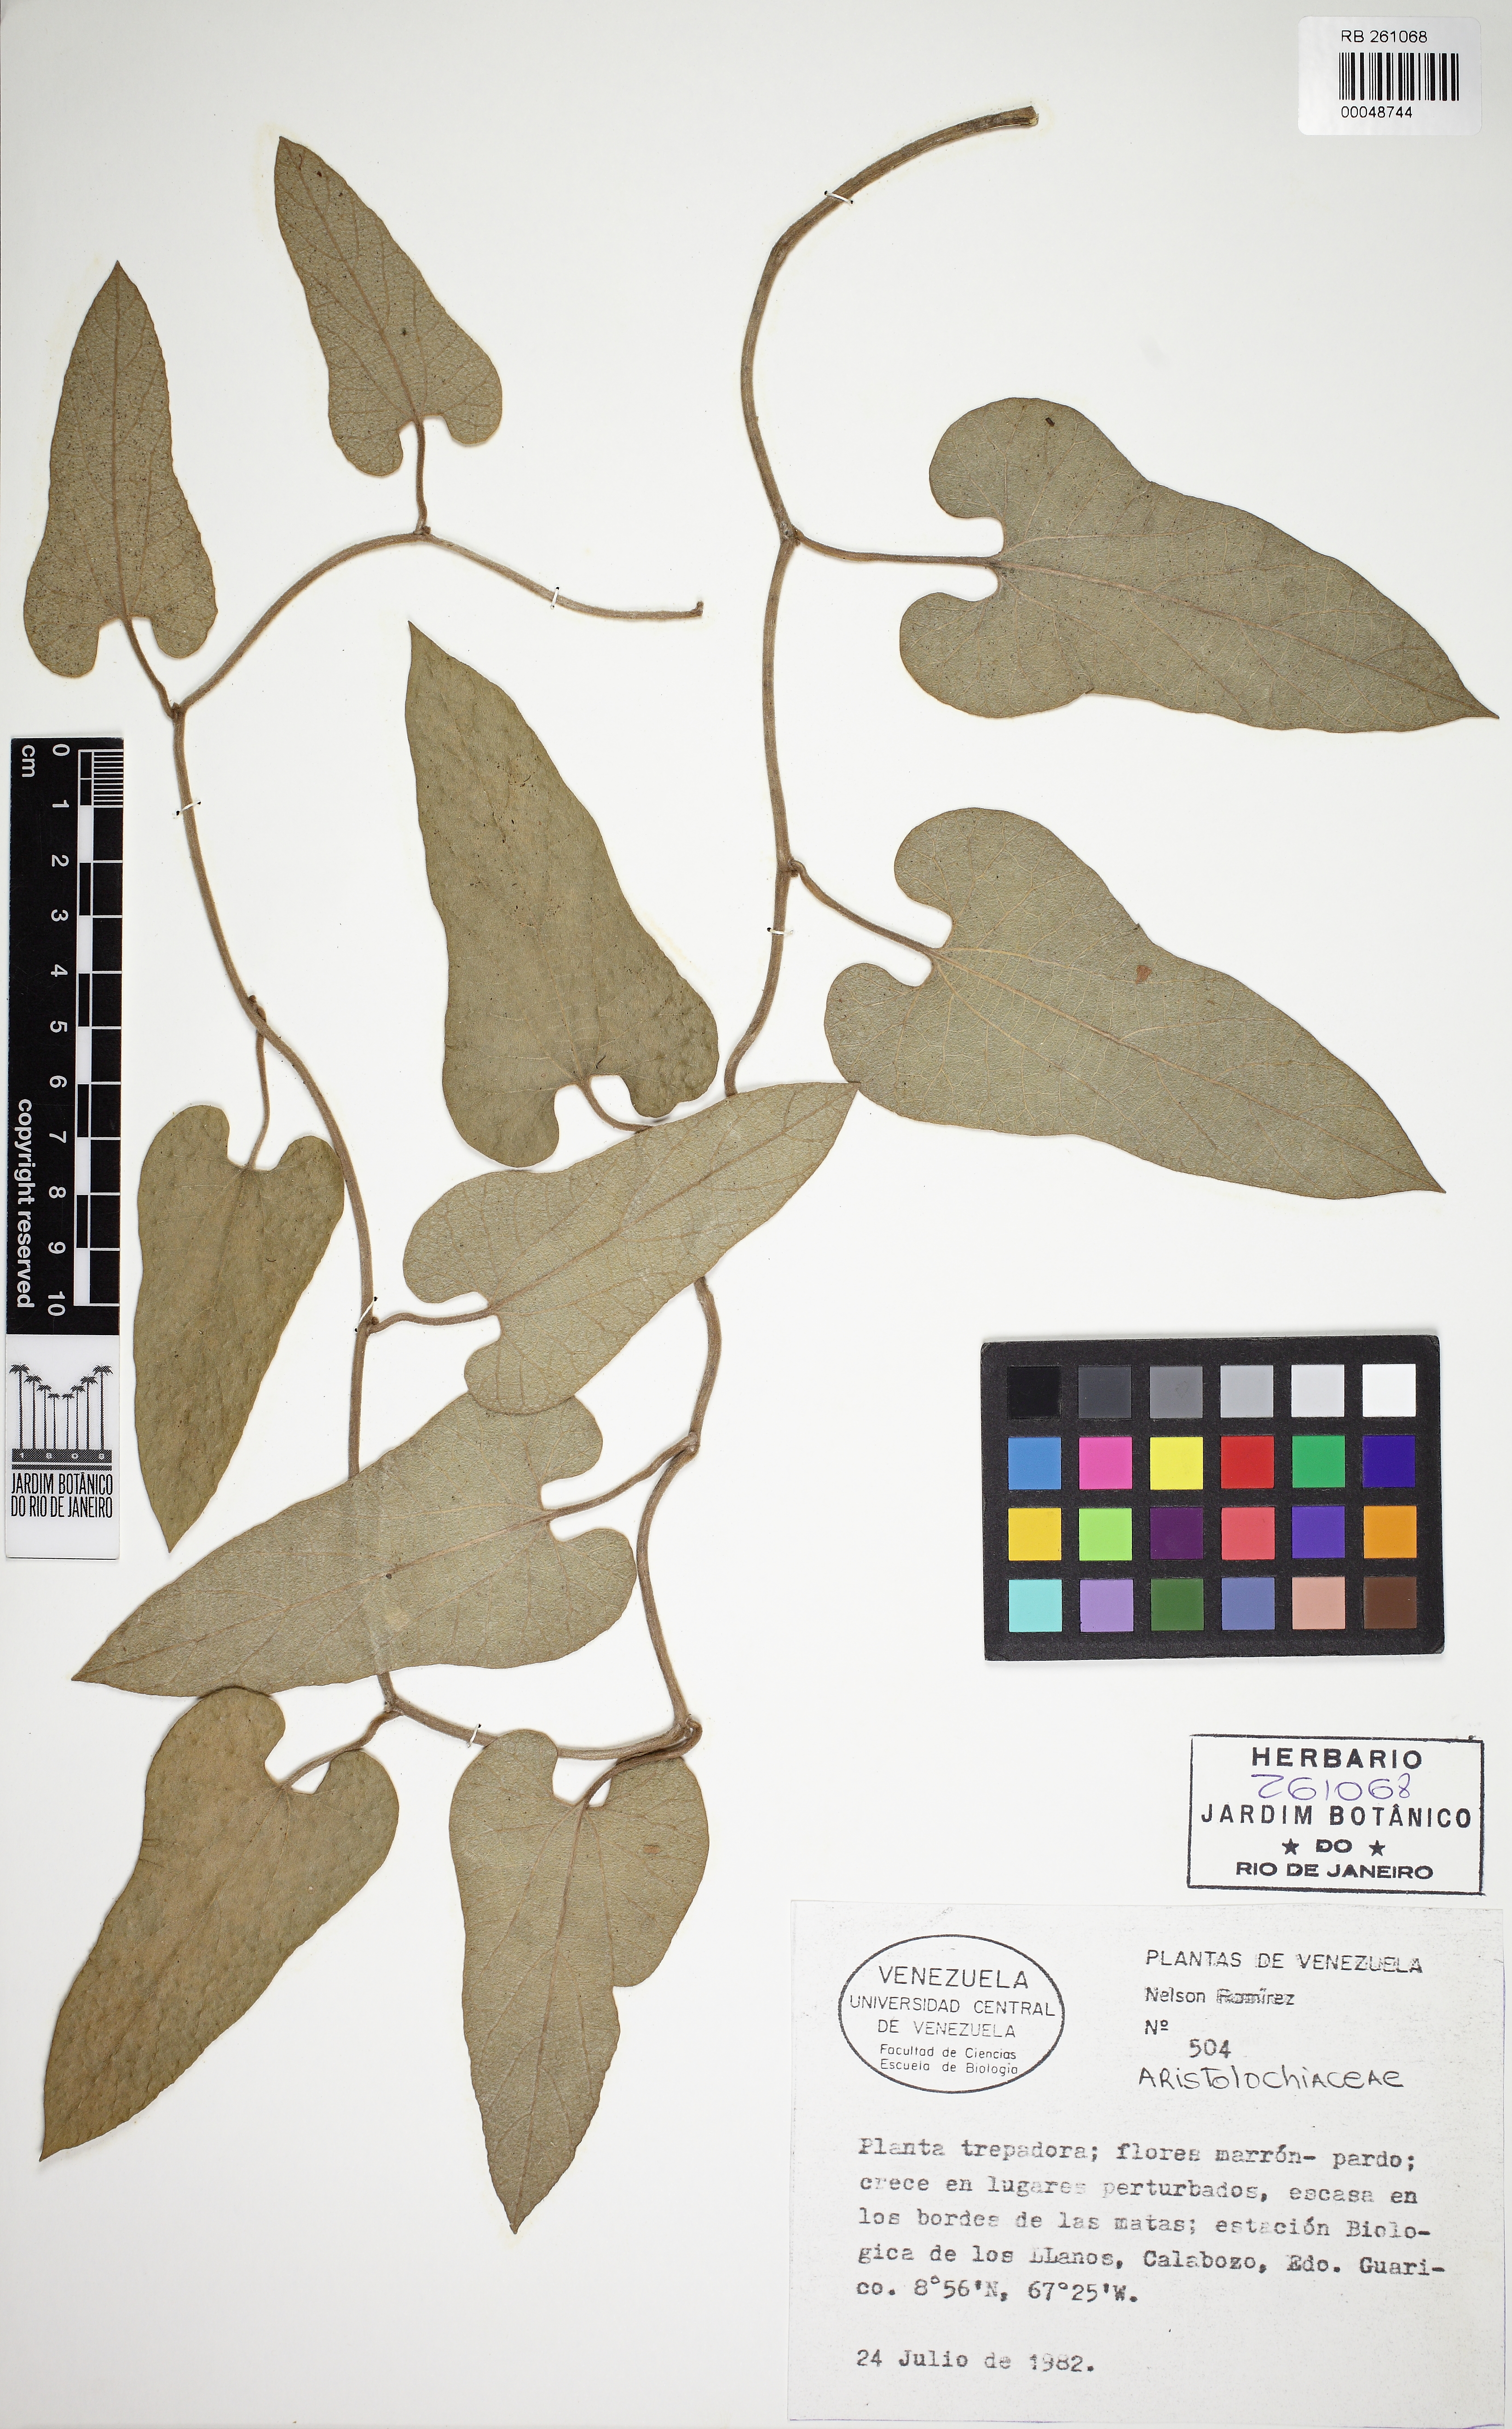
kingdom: Plantae
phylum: Tracheophyta
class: Magnoliopsida
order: Piperales
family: Aristolochiaceae
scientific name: Aristolochiaceae
